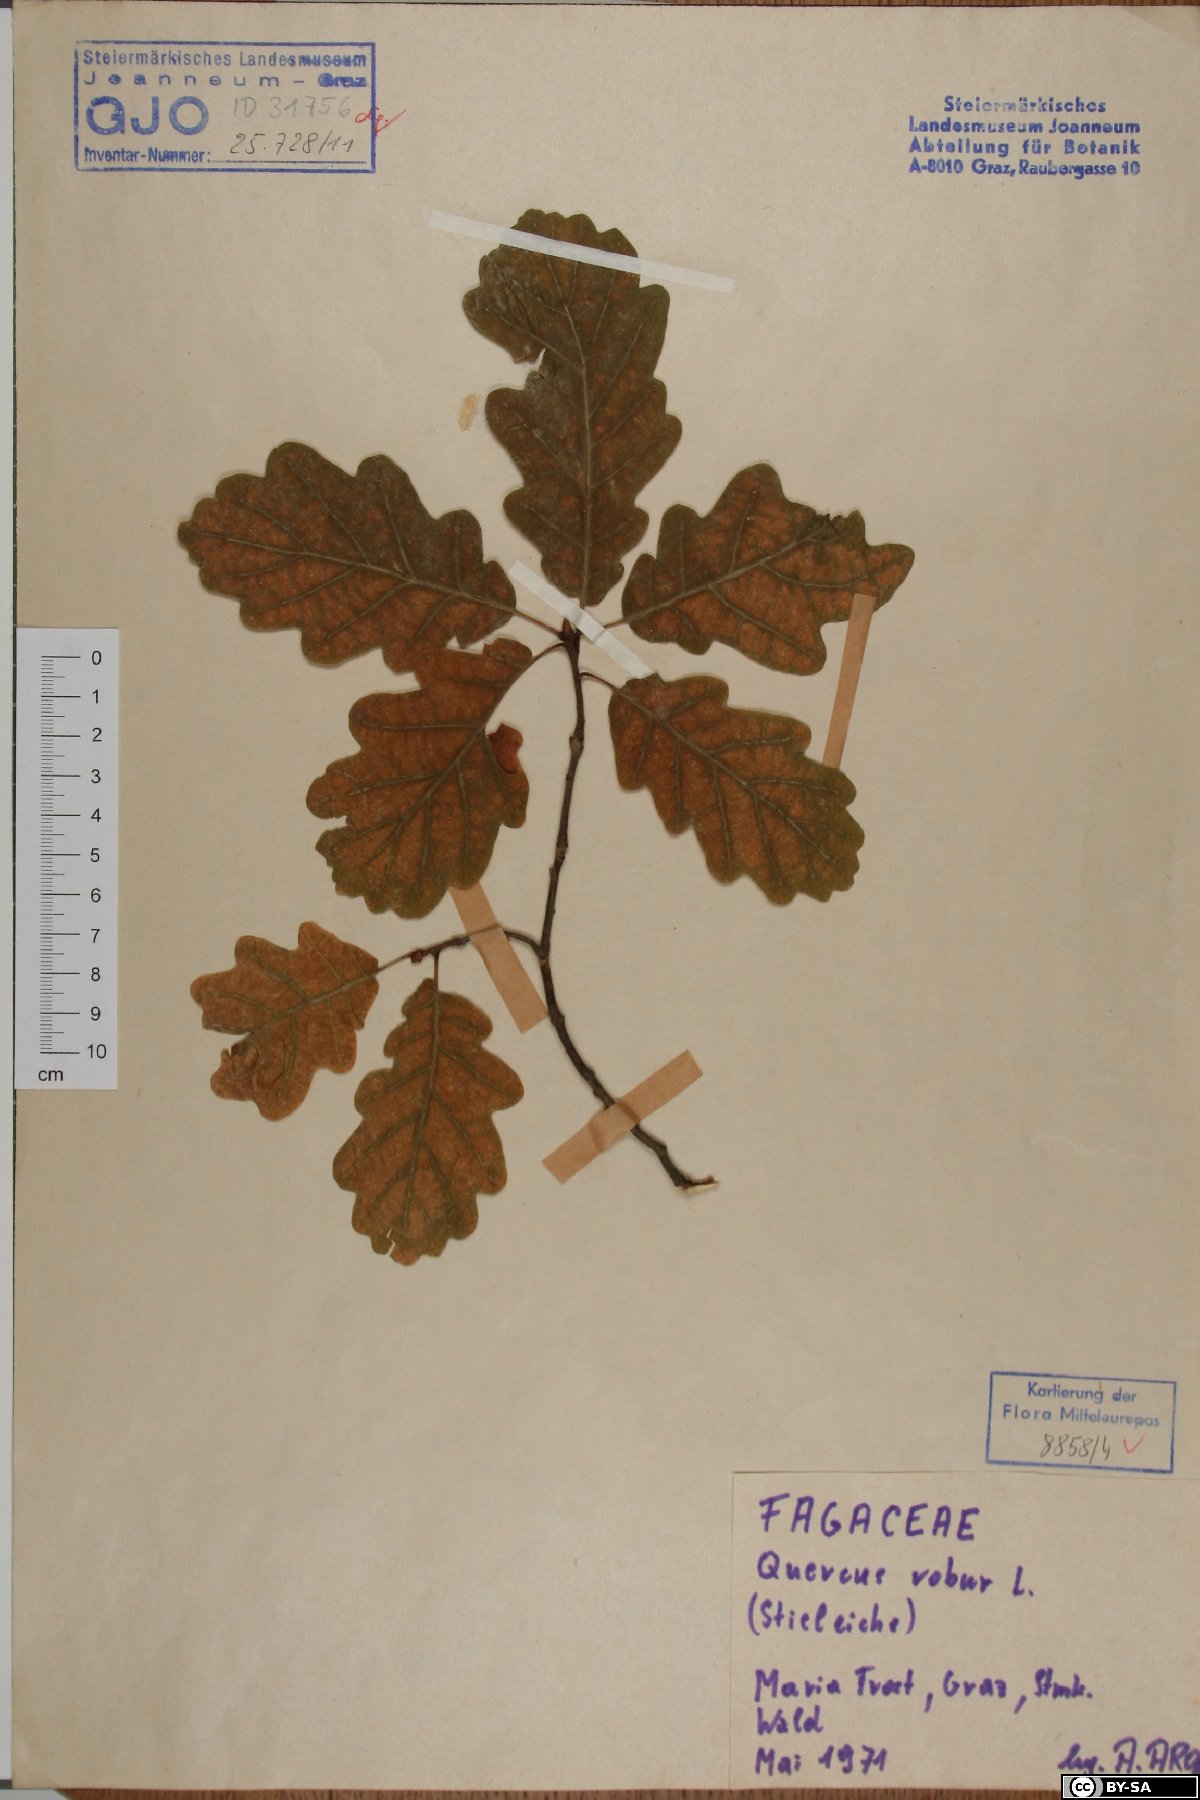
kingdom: Plantae
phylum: Tracheophyta
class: Magnoliopsida
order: Fagales
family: Fagaceae
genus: Quercus
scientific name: Quercus robur
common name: Pedunculate oak
